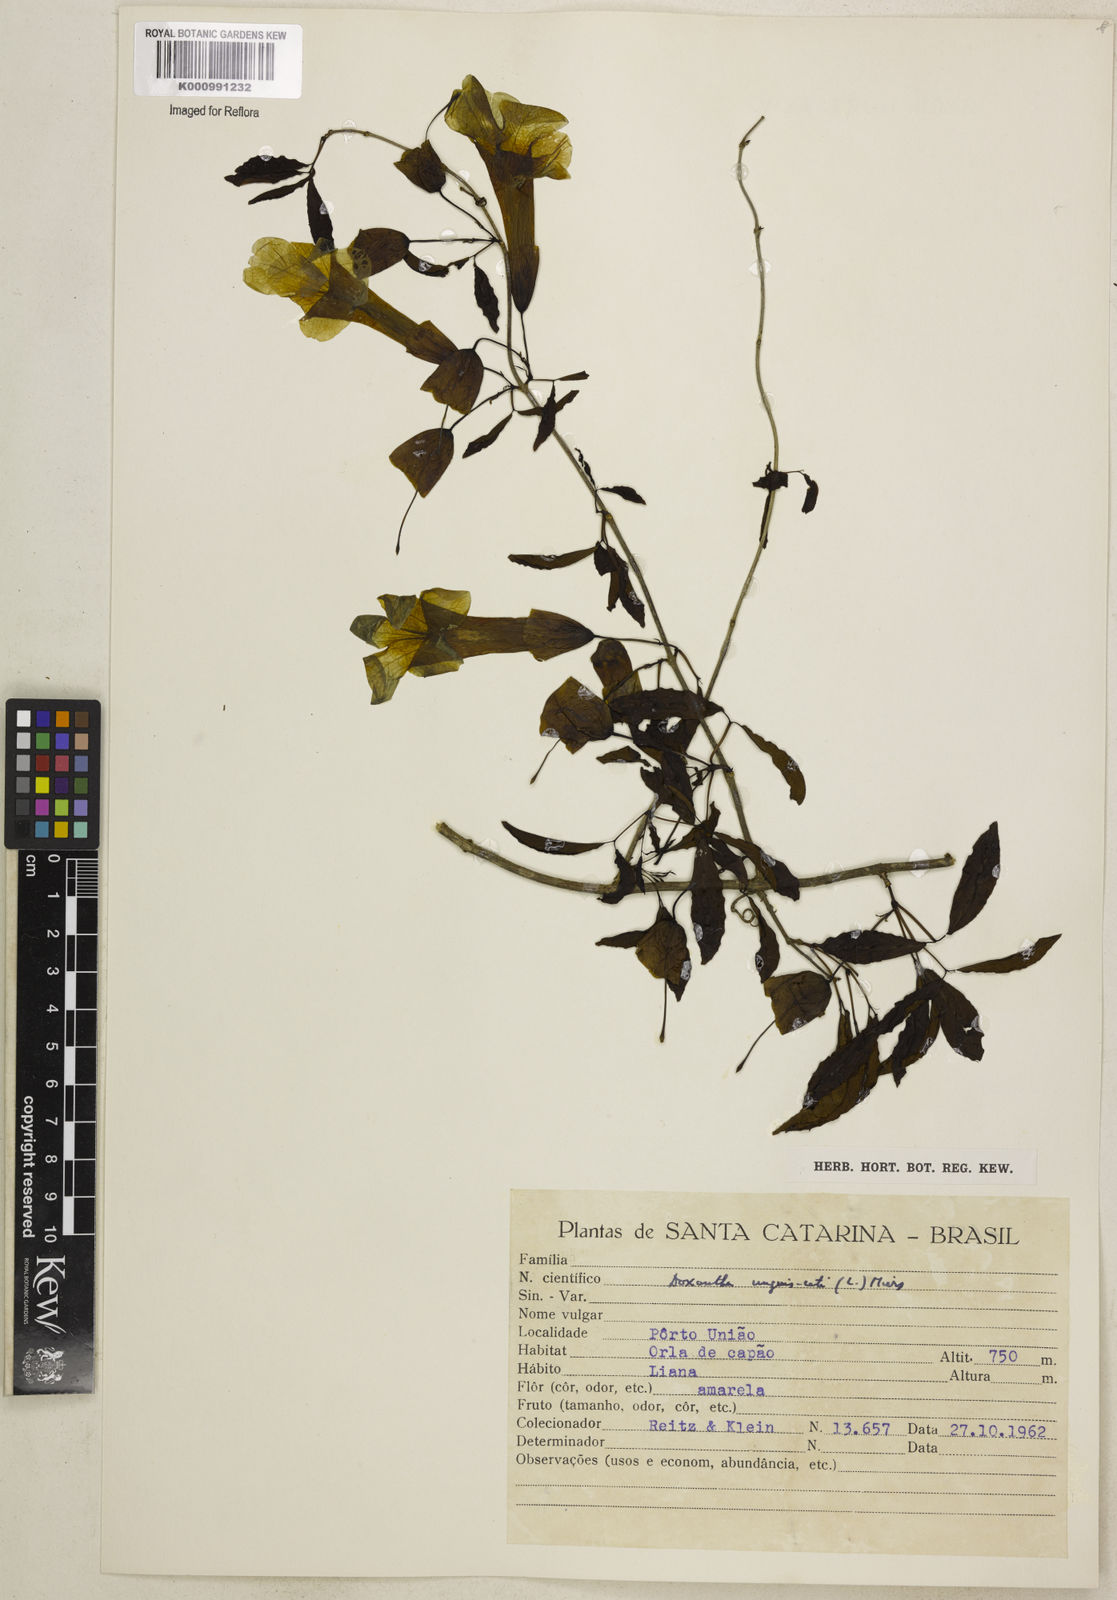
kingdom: Plantae
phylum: Tracheophyta
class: Magnoliopsida
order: Lamiales
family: Bignoniaceae
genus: Dolichandra
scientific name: Dolichandra unguis-cati
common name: Catclaw vine
